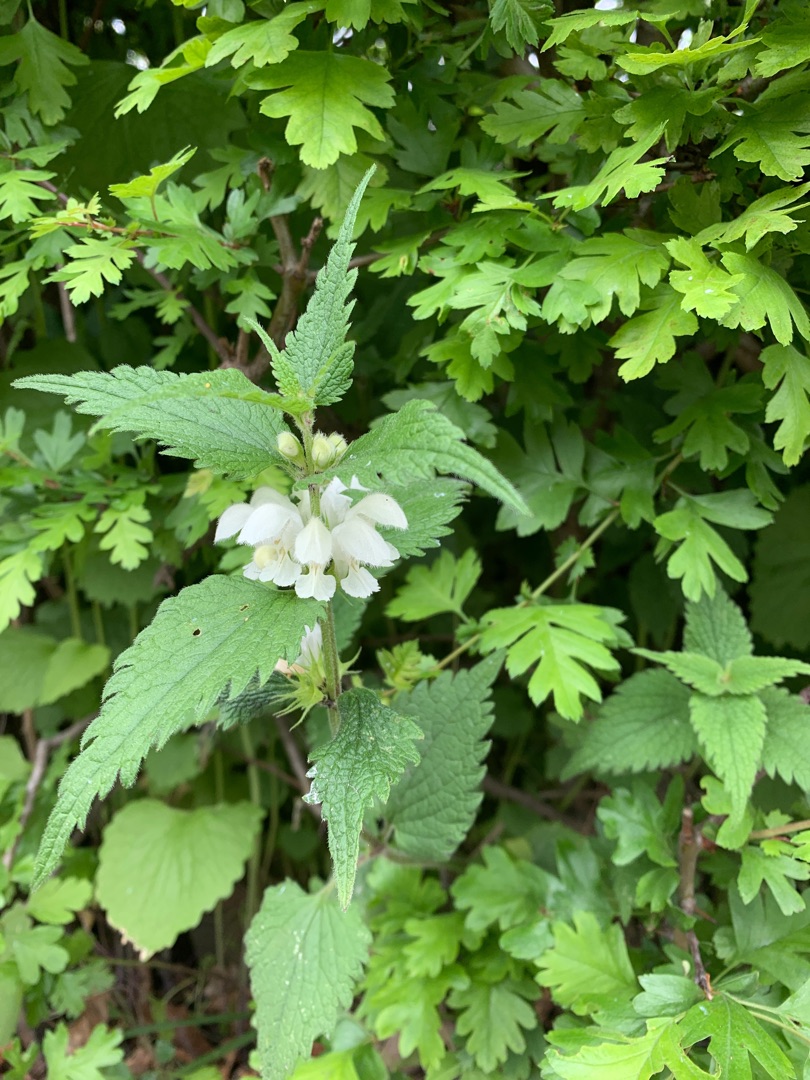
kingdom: Plantae
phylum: Tracheophyta
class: Magnoliopsida
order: Lamiales
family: Lamiaceae
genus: Lamium
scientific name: Lamium album
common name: Døvnælde
